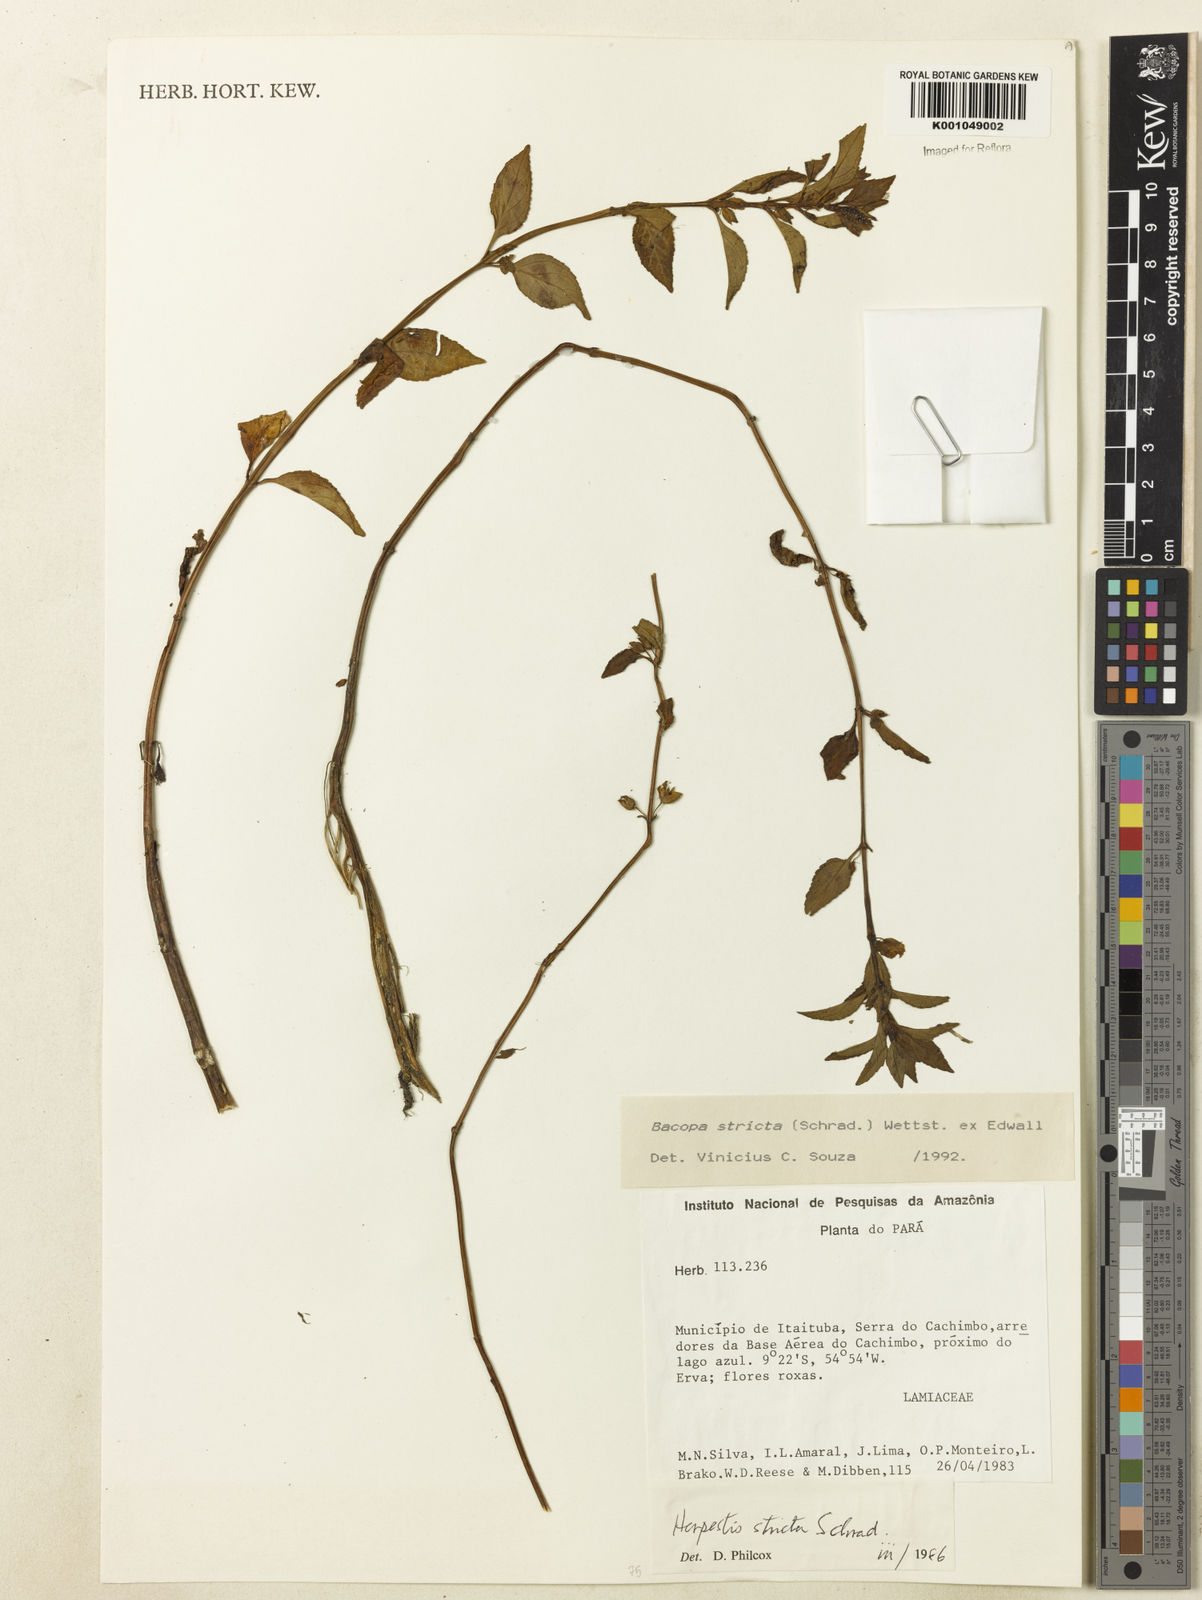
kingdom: Plantae
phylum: Tracheophyta
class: Magnoliopsida
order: Lamiales
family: Plantaginaceae
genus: Bacopa
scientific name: Bacopa stricta
